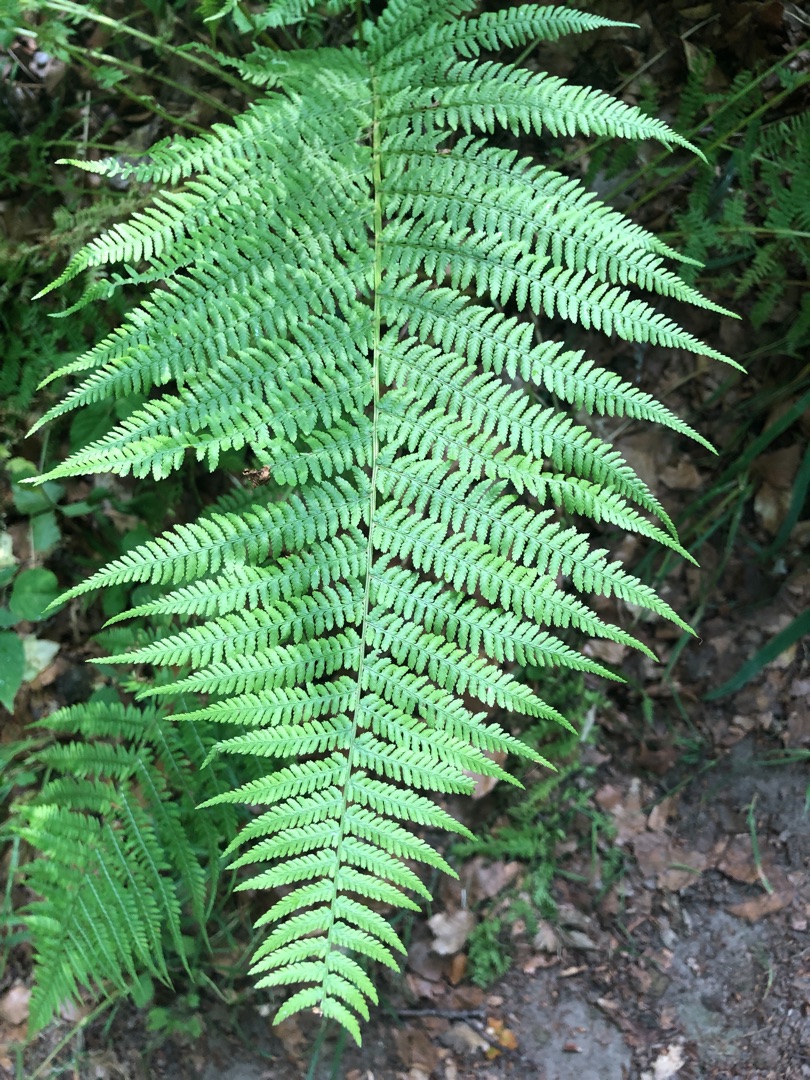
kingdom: Plantae
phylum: Tracheophyta
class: Polypodiopsida
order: Polypodiales
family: Athyriaceae
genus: Athyrium
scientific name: Athyrium filix-femina
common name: Fjerbregne
